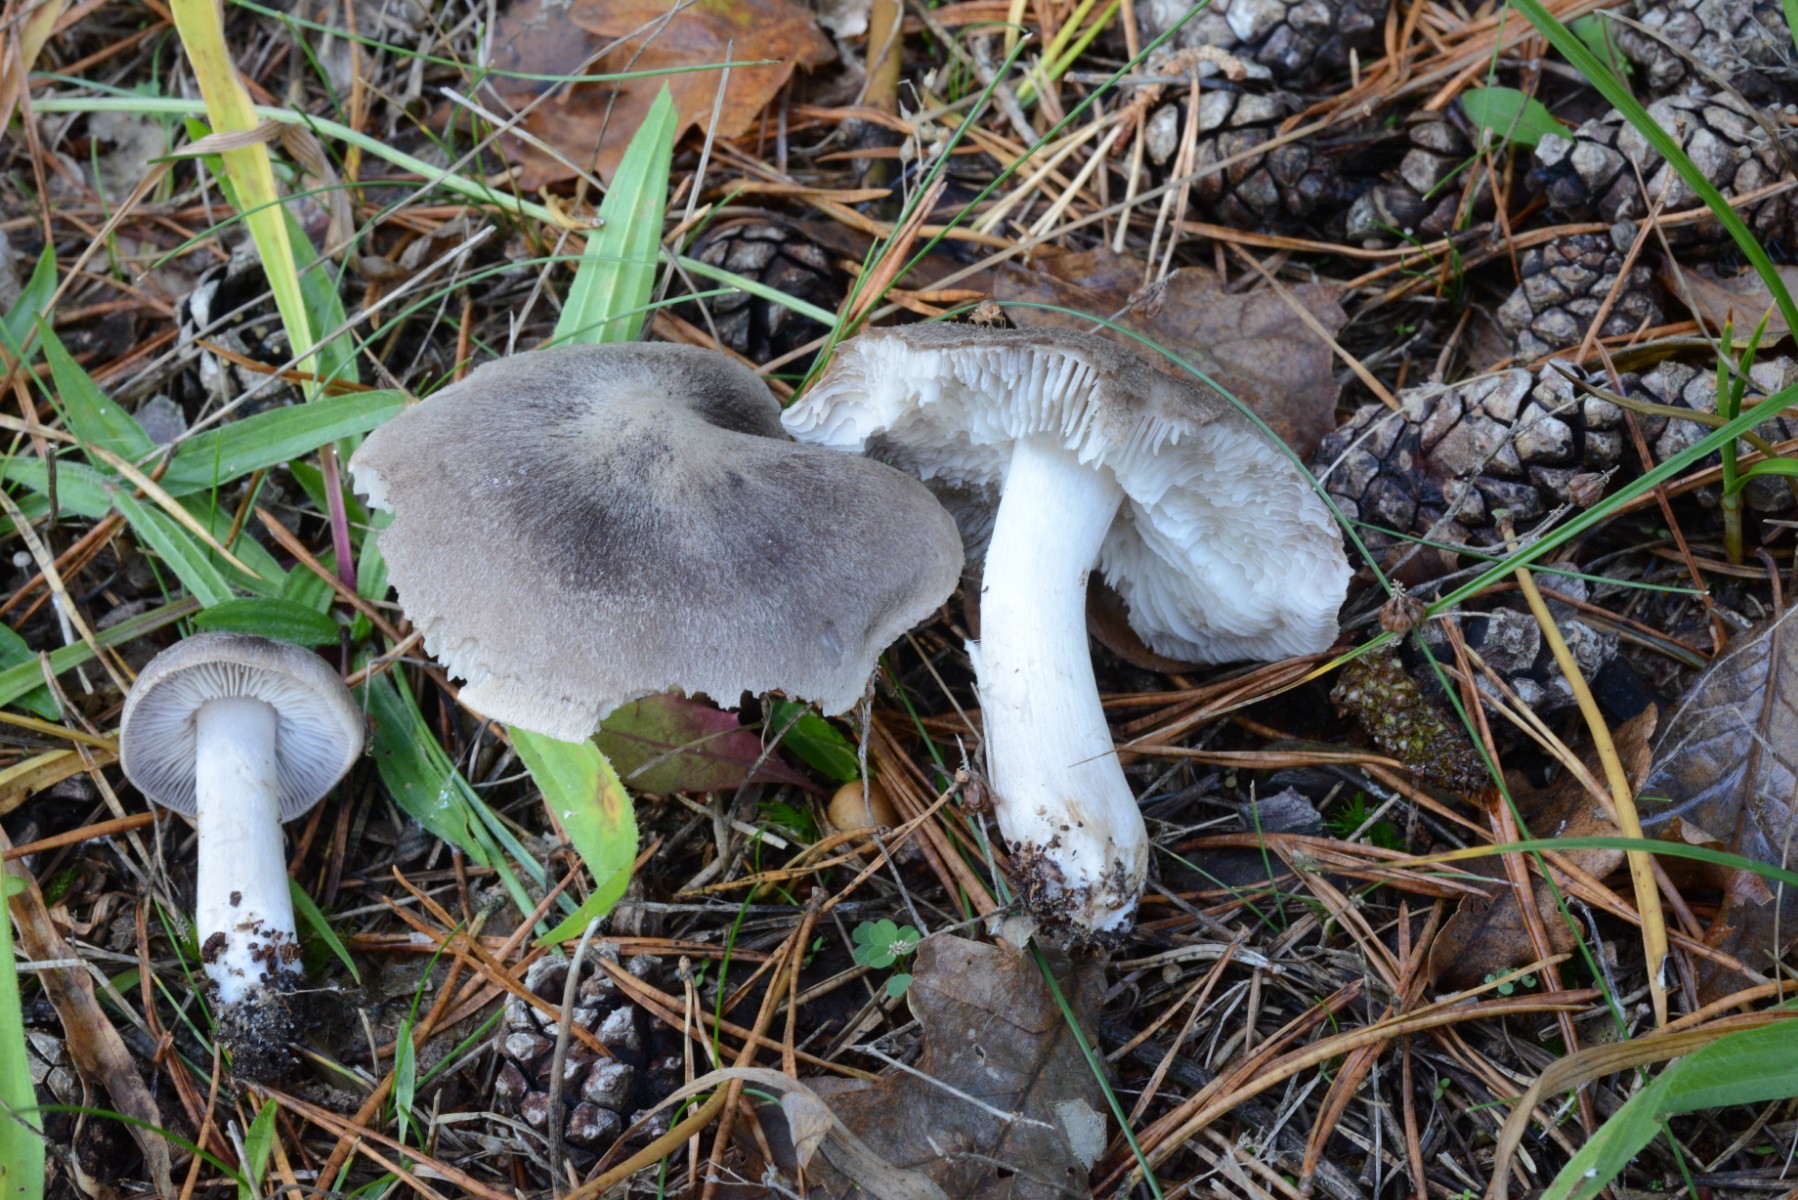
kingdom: Fungi
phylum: Basidiomycota
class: Agaricomycetes
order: Agaricales
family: Tricholomataceae
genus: Tricholoma
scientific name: Tricholoma terreum
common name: jordfarvet ridderhat
